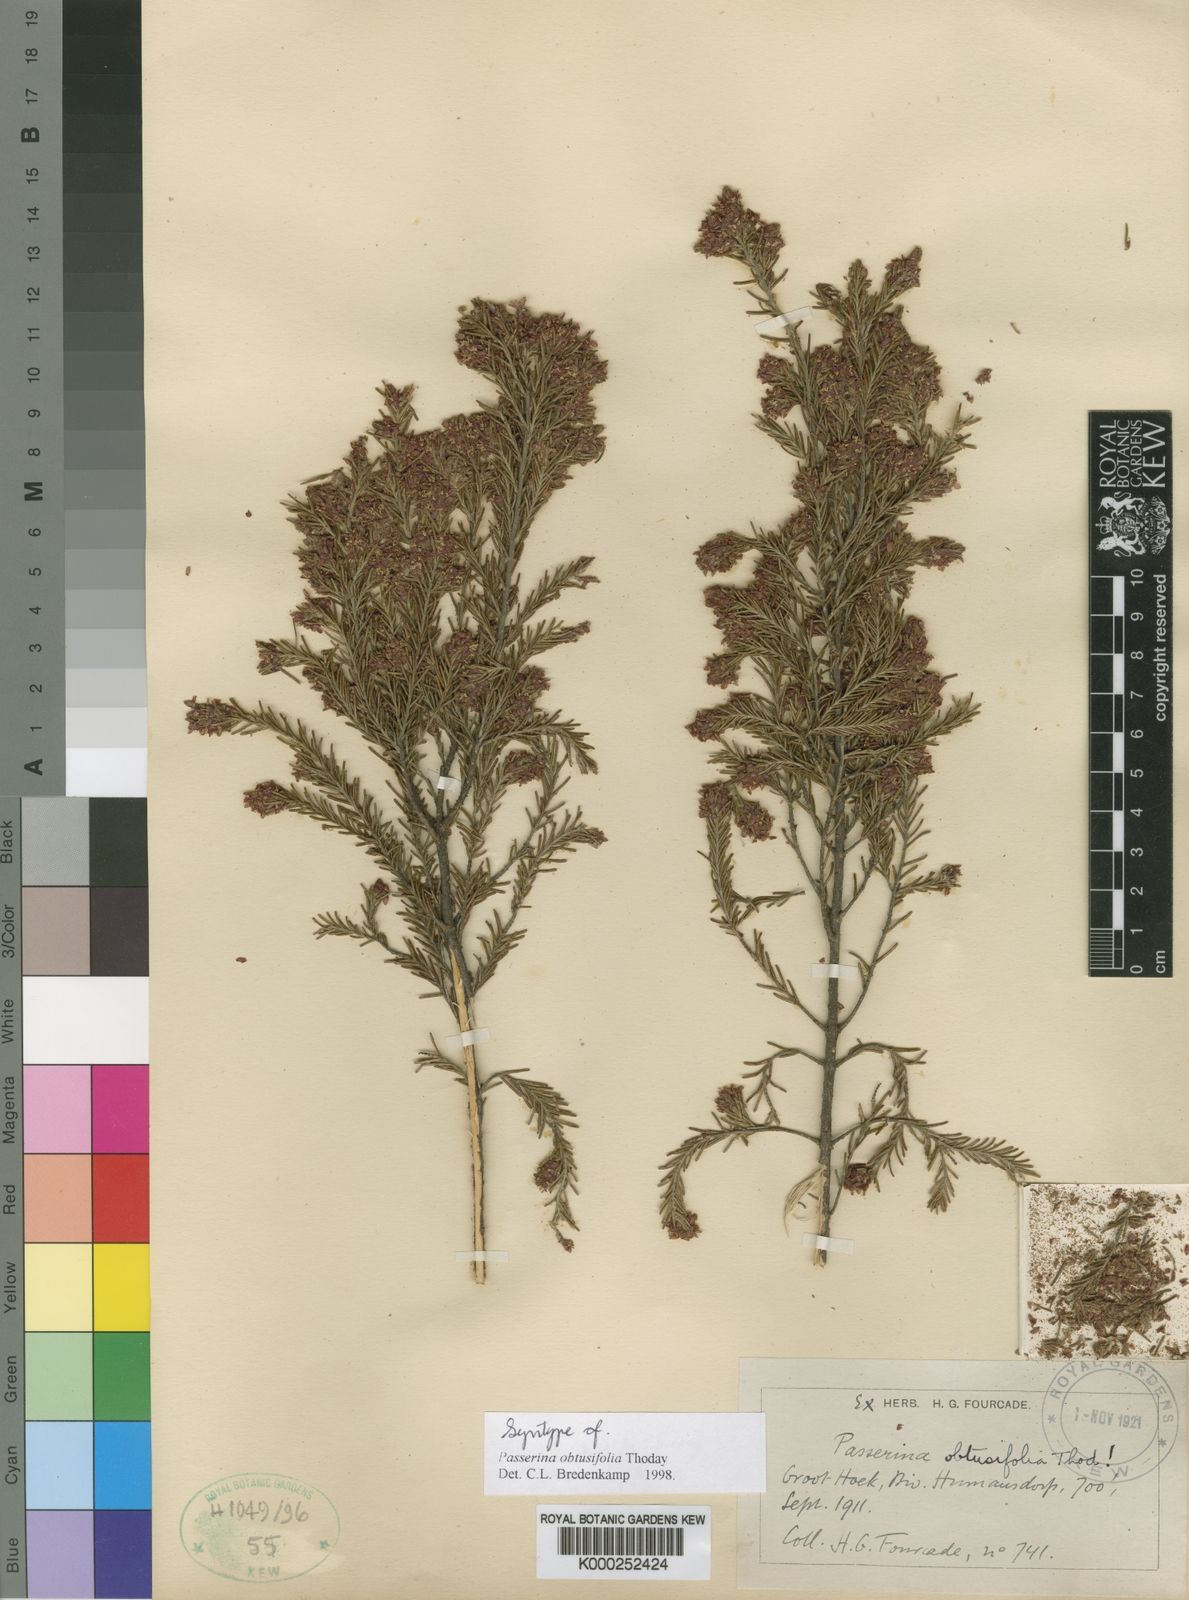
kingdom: Plantae
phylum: Tracheophyta
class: Magnoliopsida
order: Malvales
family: Thymelaeaceae
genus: Passerina
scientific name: Passerina obtusifolia
